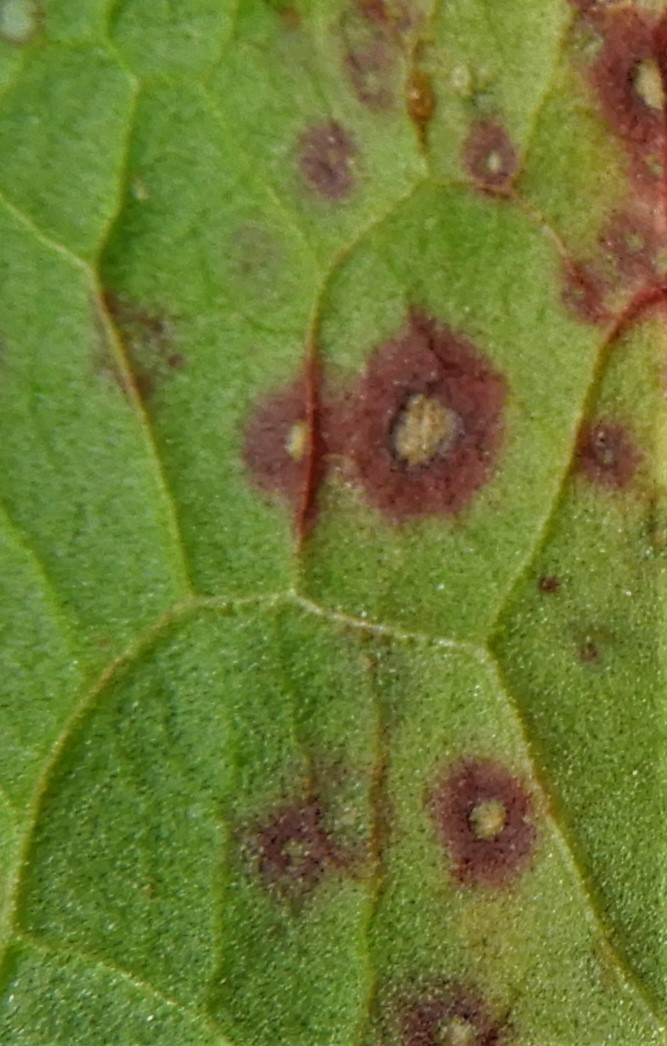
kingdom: Fungi
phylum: Ascomycota
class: Dothideomycetes
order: Capnodiales
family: Mycosphaerellaceae
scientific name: Mycosphaerellaceae
